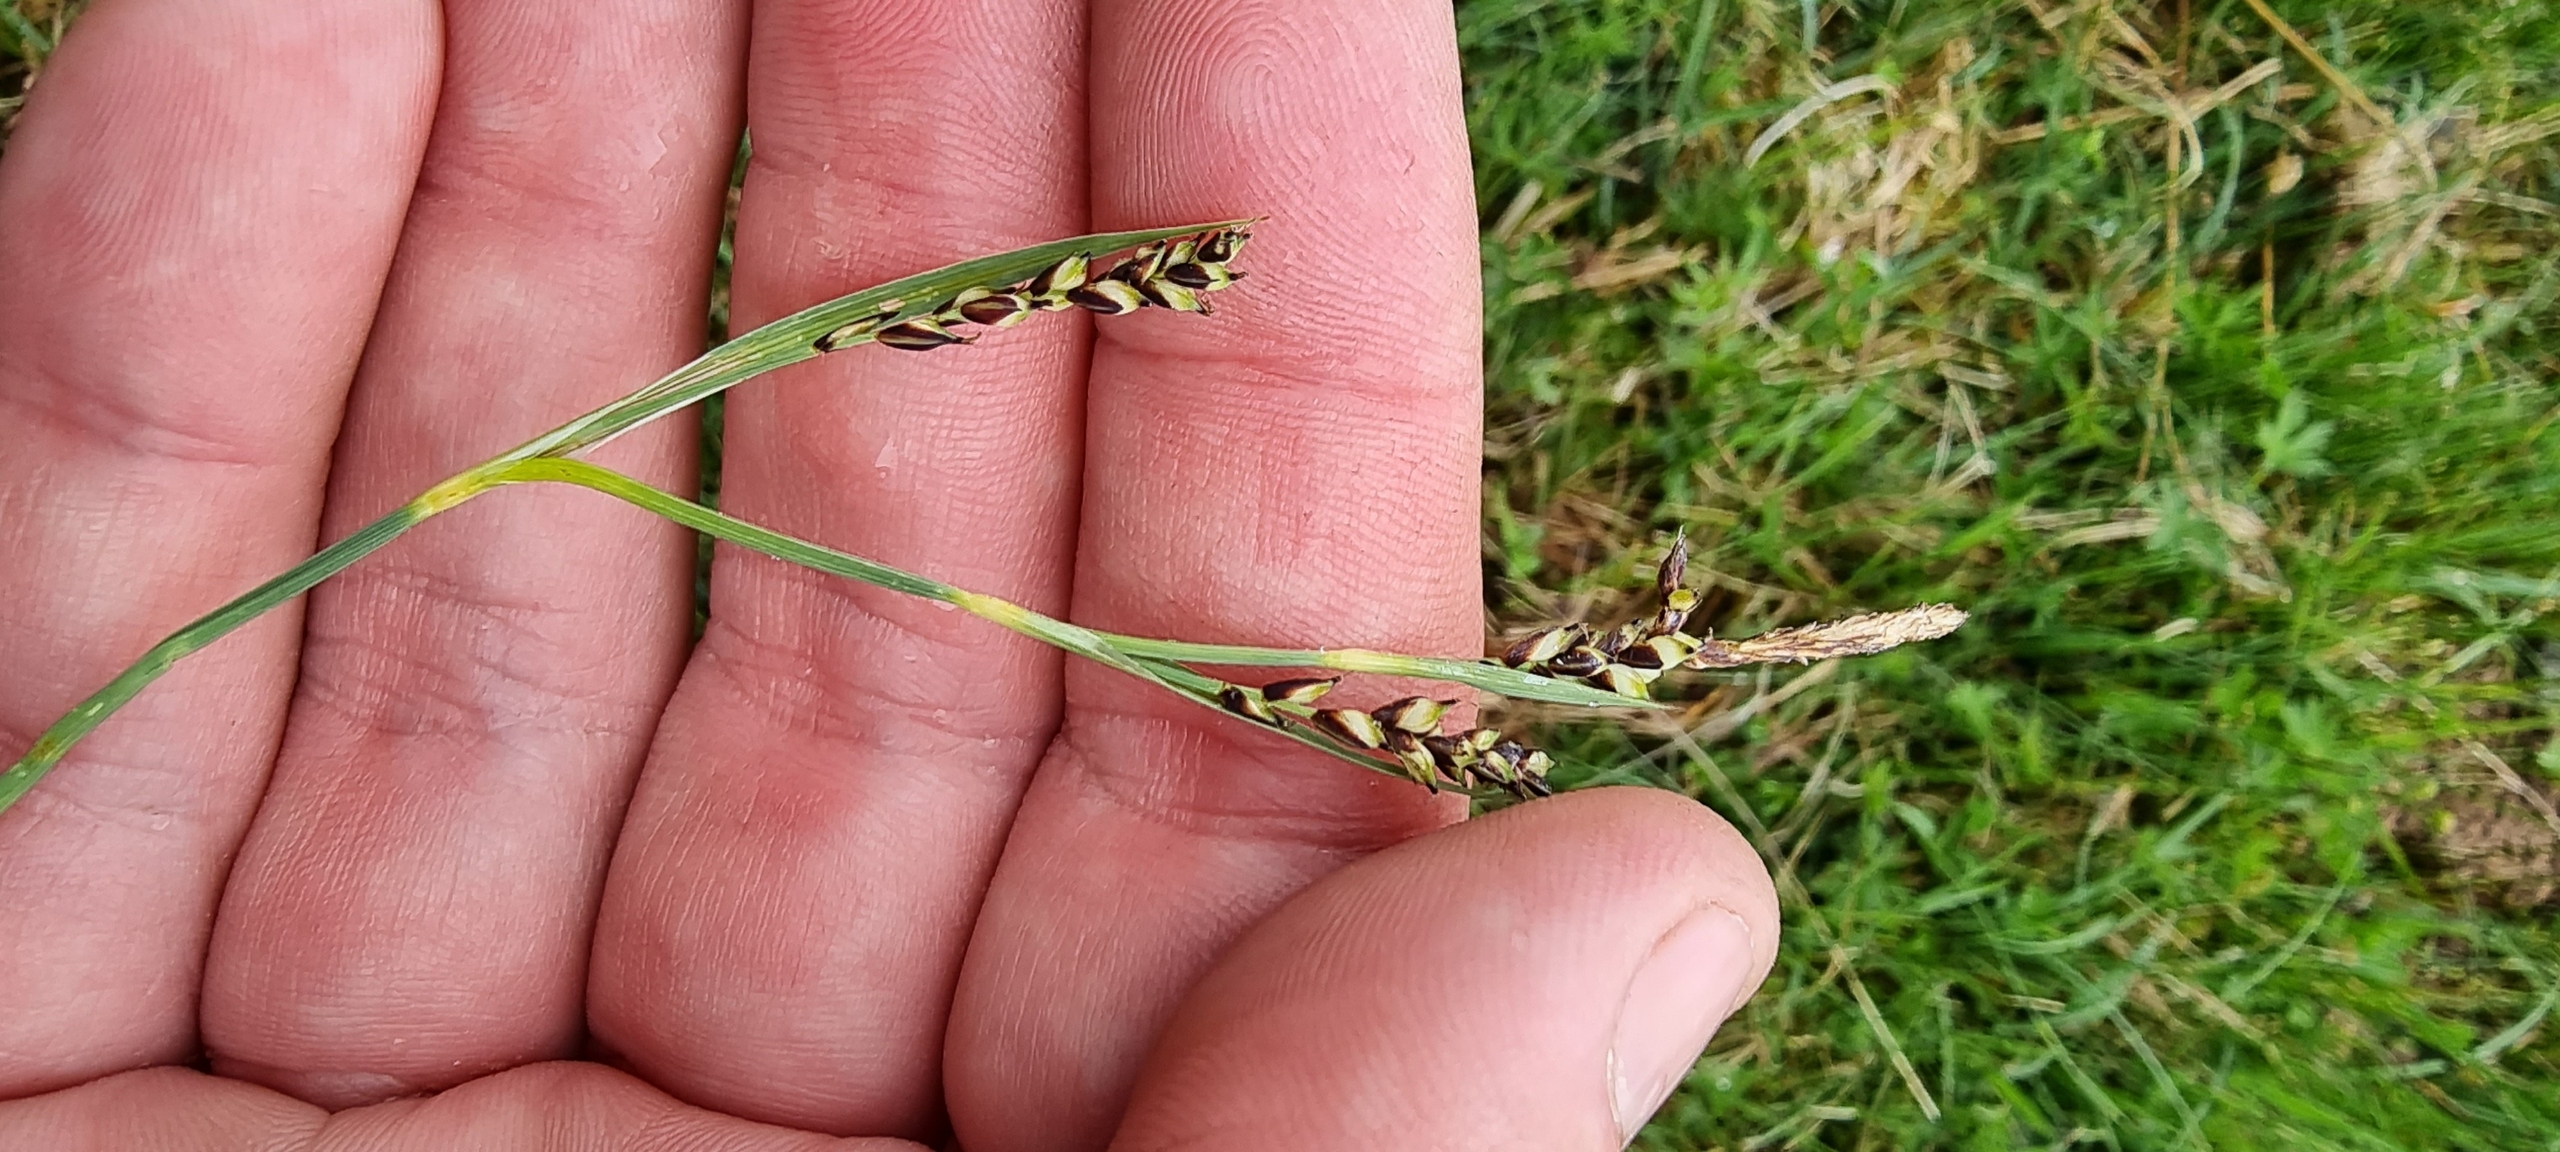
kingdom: Plantae
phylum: Tracheophyta
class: Liliopsida
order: Poales
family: Cyperaceae
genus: Carex
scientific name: Carex panicea
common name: Hirse-star
